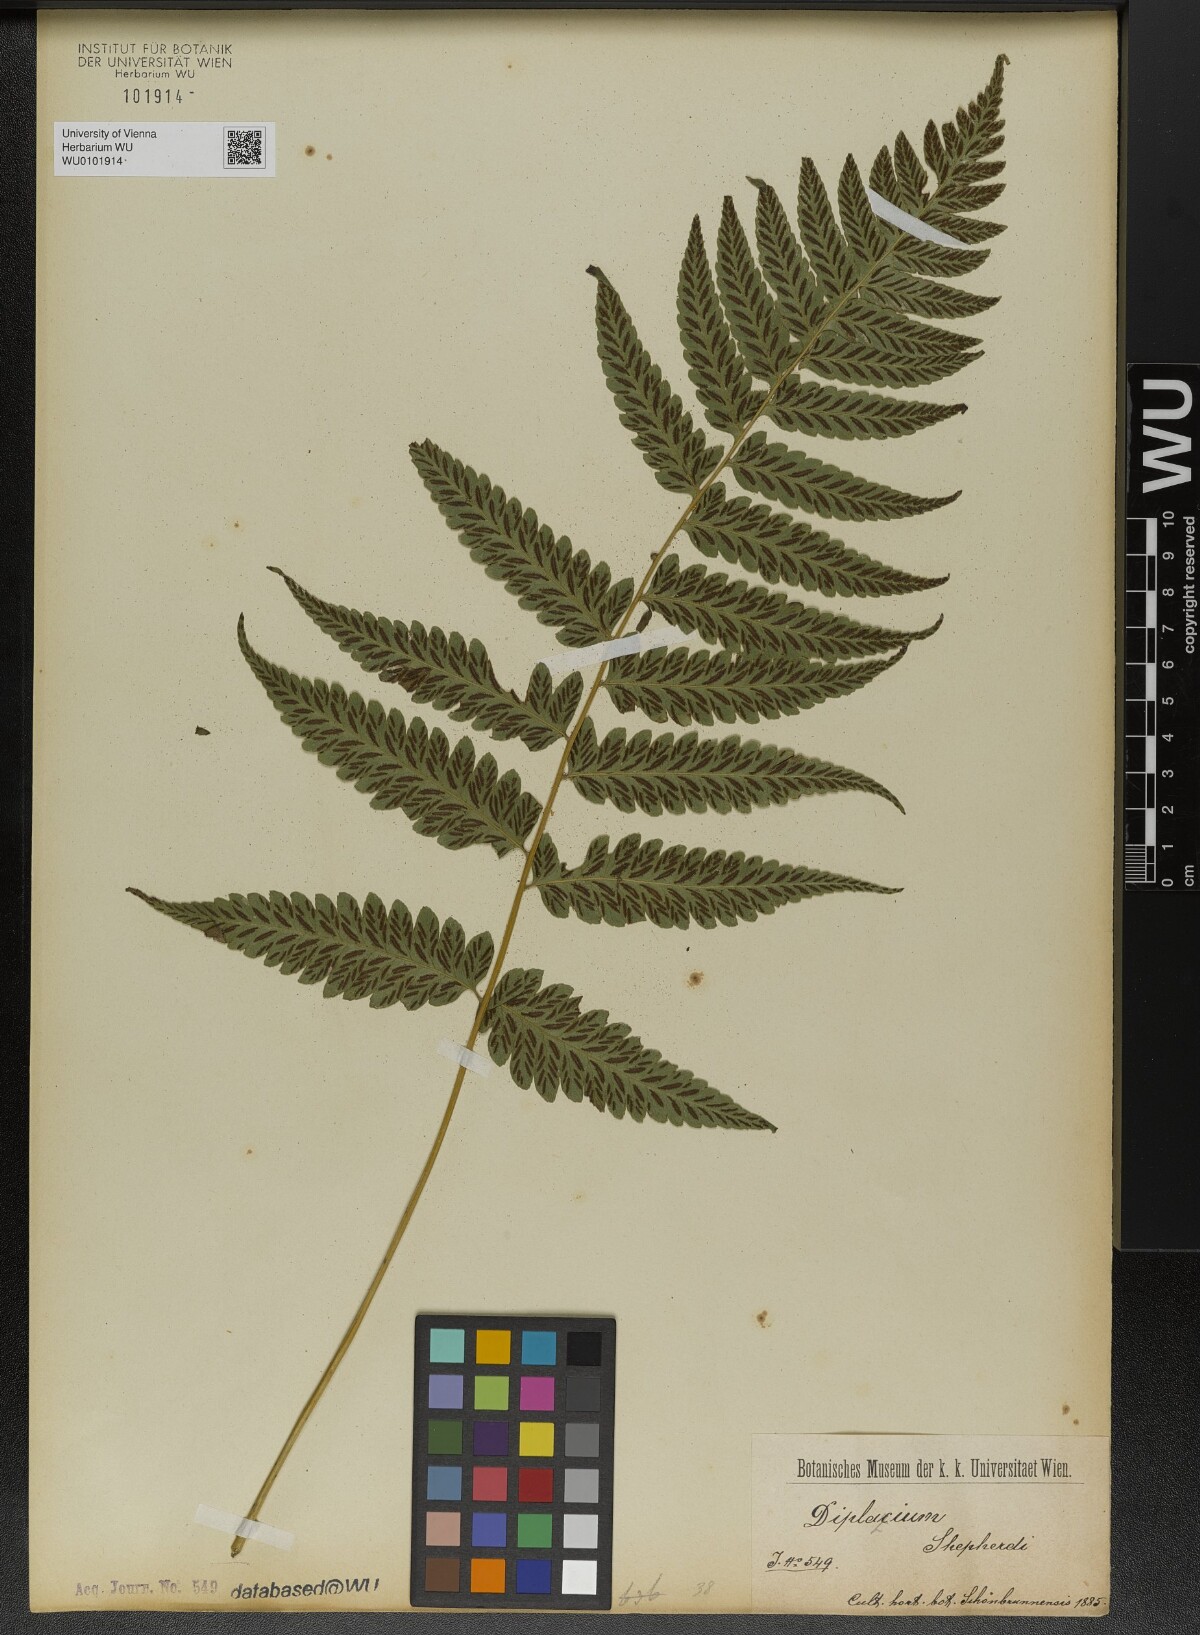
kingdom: Plantae
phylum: Tracheophyta
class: Polypodiopsida
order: Polypodiales
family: Athyriaceae
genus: Diplazium
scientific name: Diplazium cristatum
